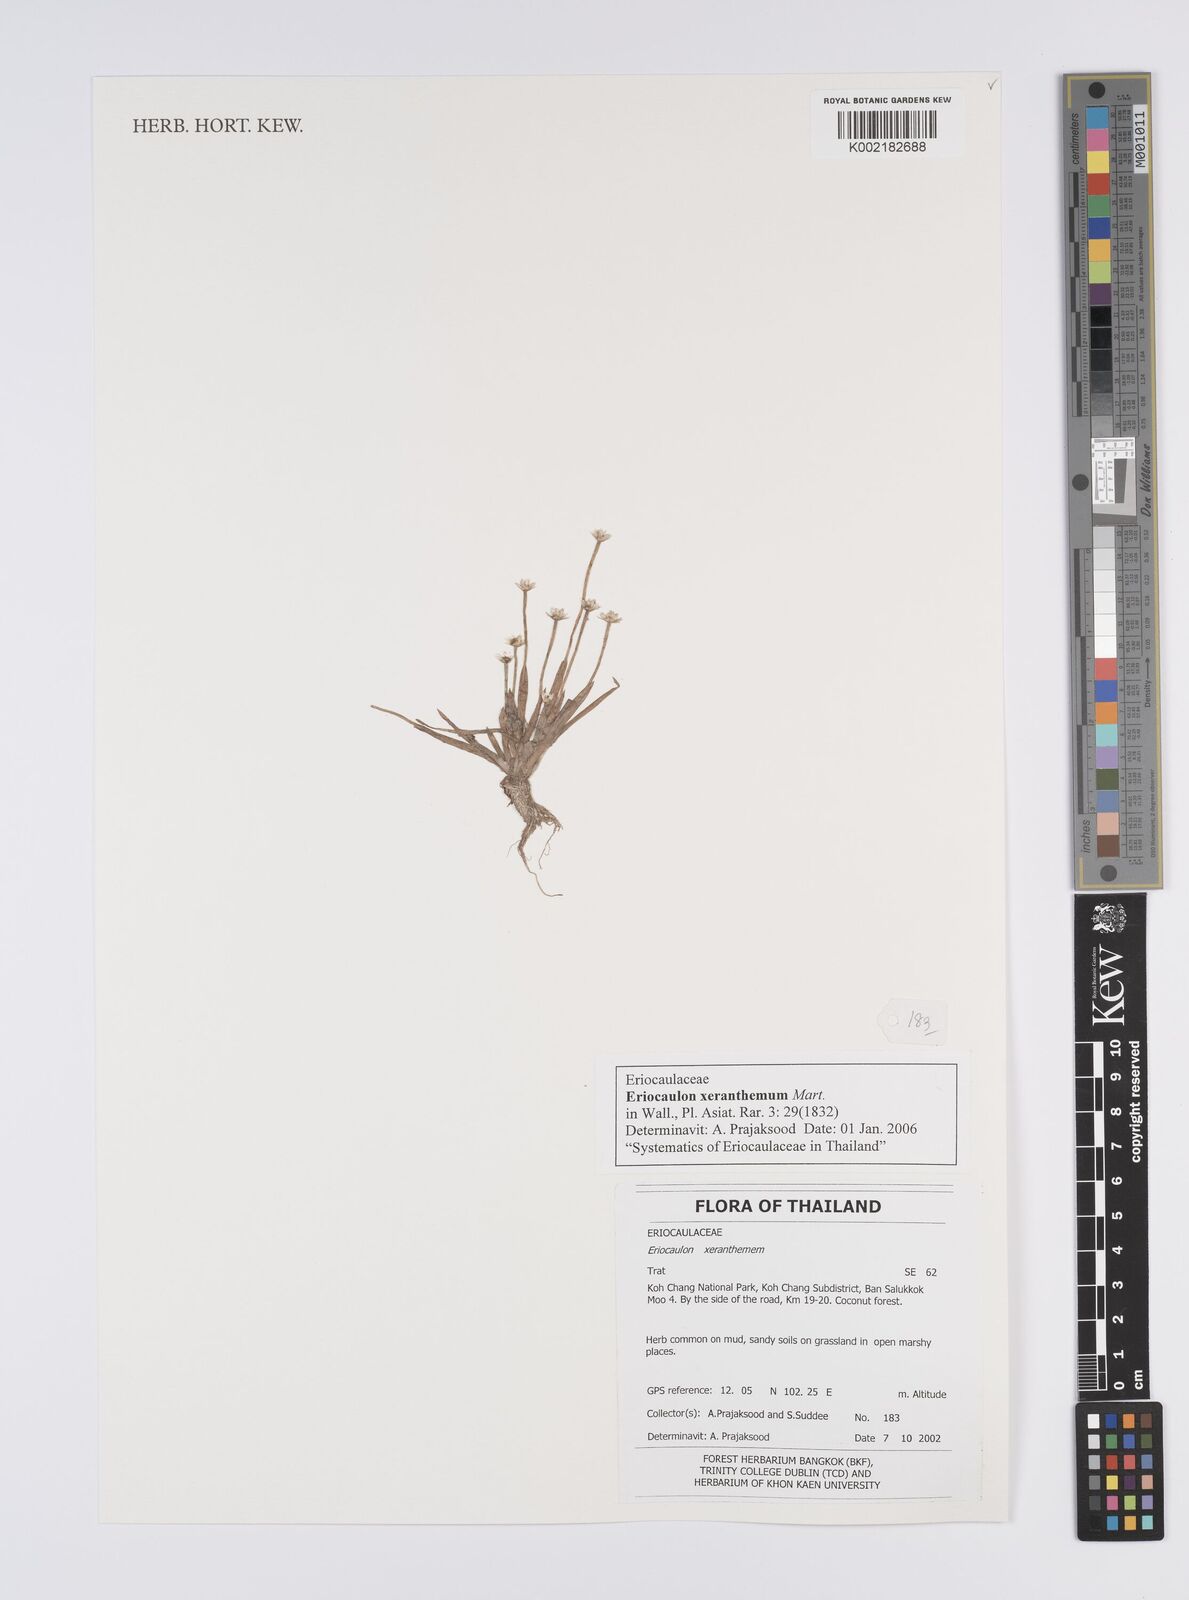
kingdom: Plantae
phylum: Tracheophyta
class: Liliopsida
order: Poales
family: Eriocaulaceae
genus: Eriocaulon
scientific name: Eriocaulon xeranthemum
